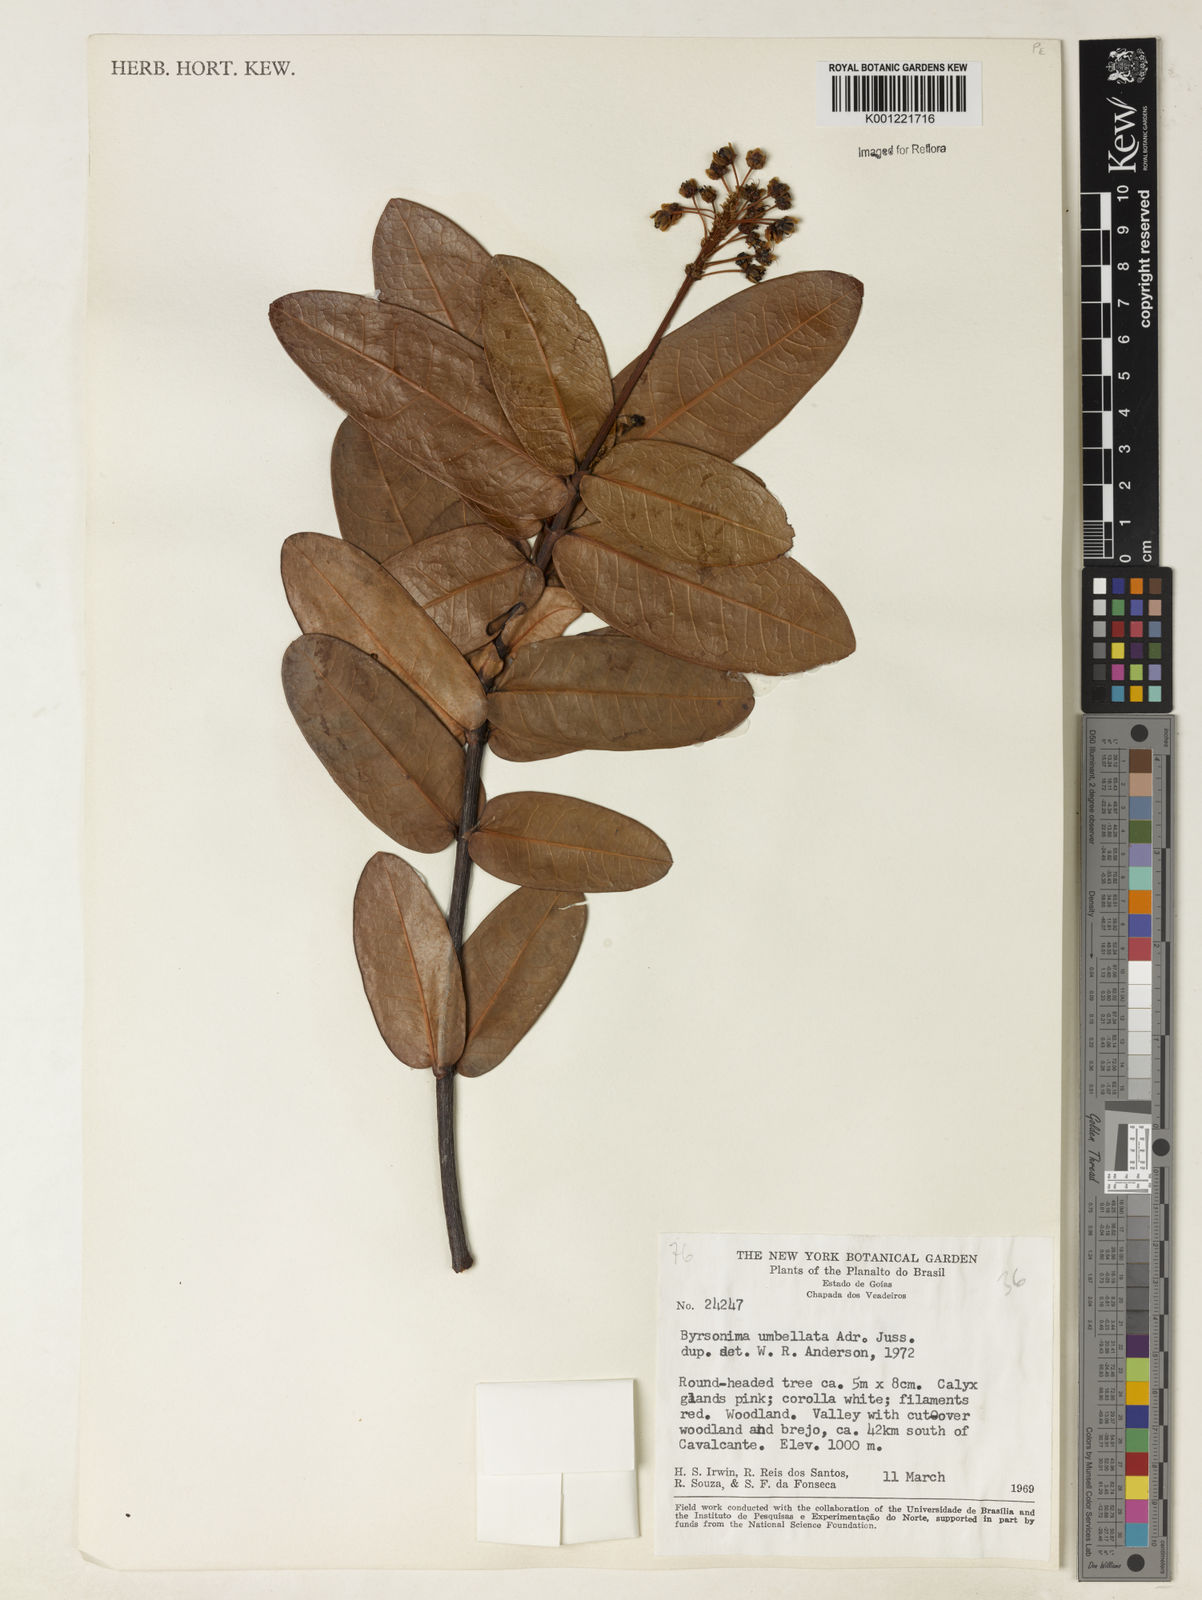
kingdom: Plantae
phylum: Tracheophyta
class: Magnoliopsida
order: Malpighiales
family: Malpighiaceae
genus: Byrsonima
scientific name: Byrsonima umbellata
